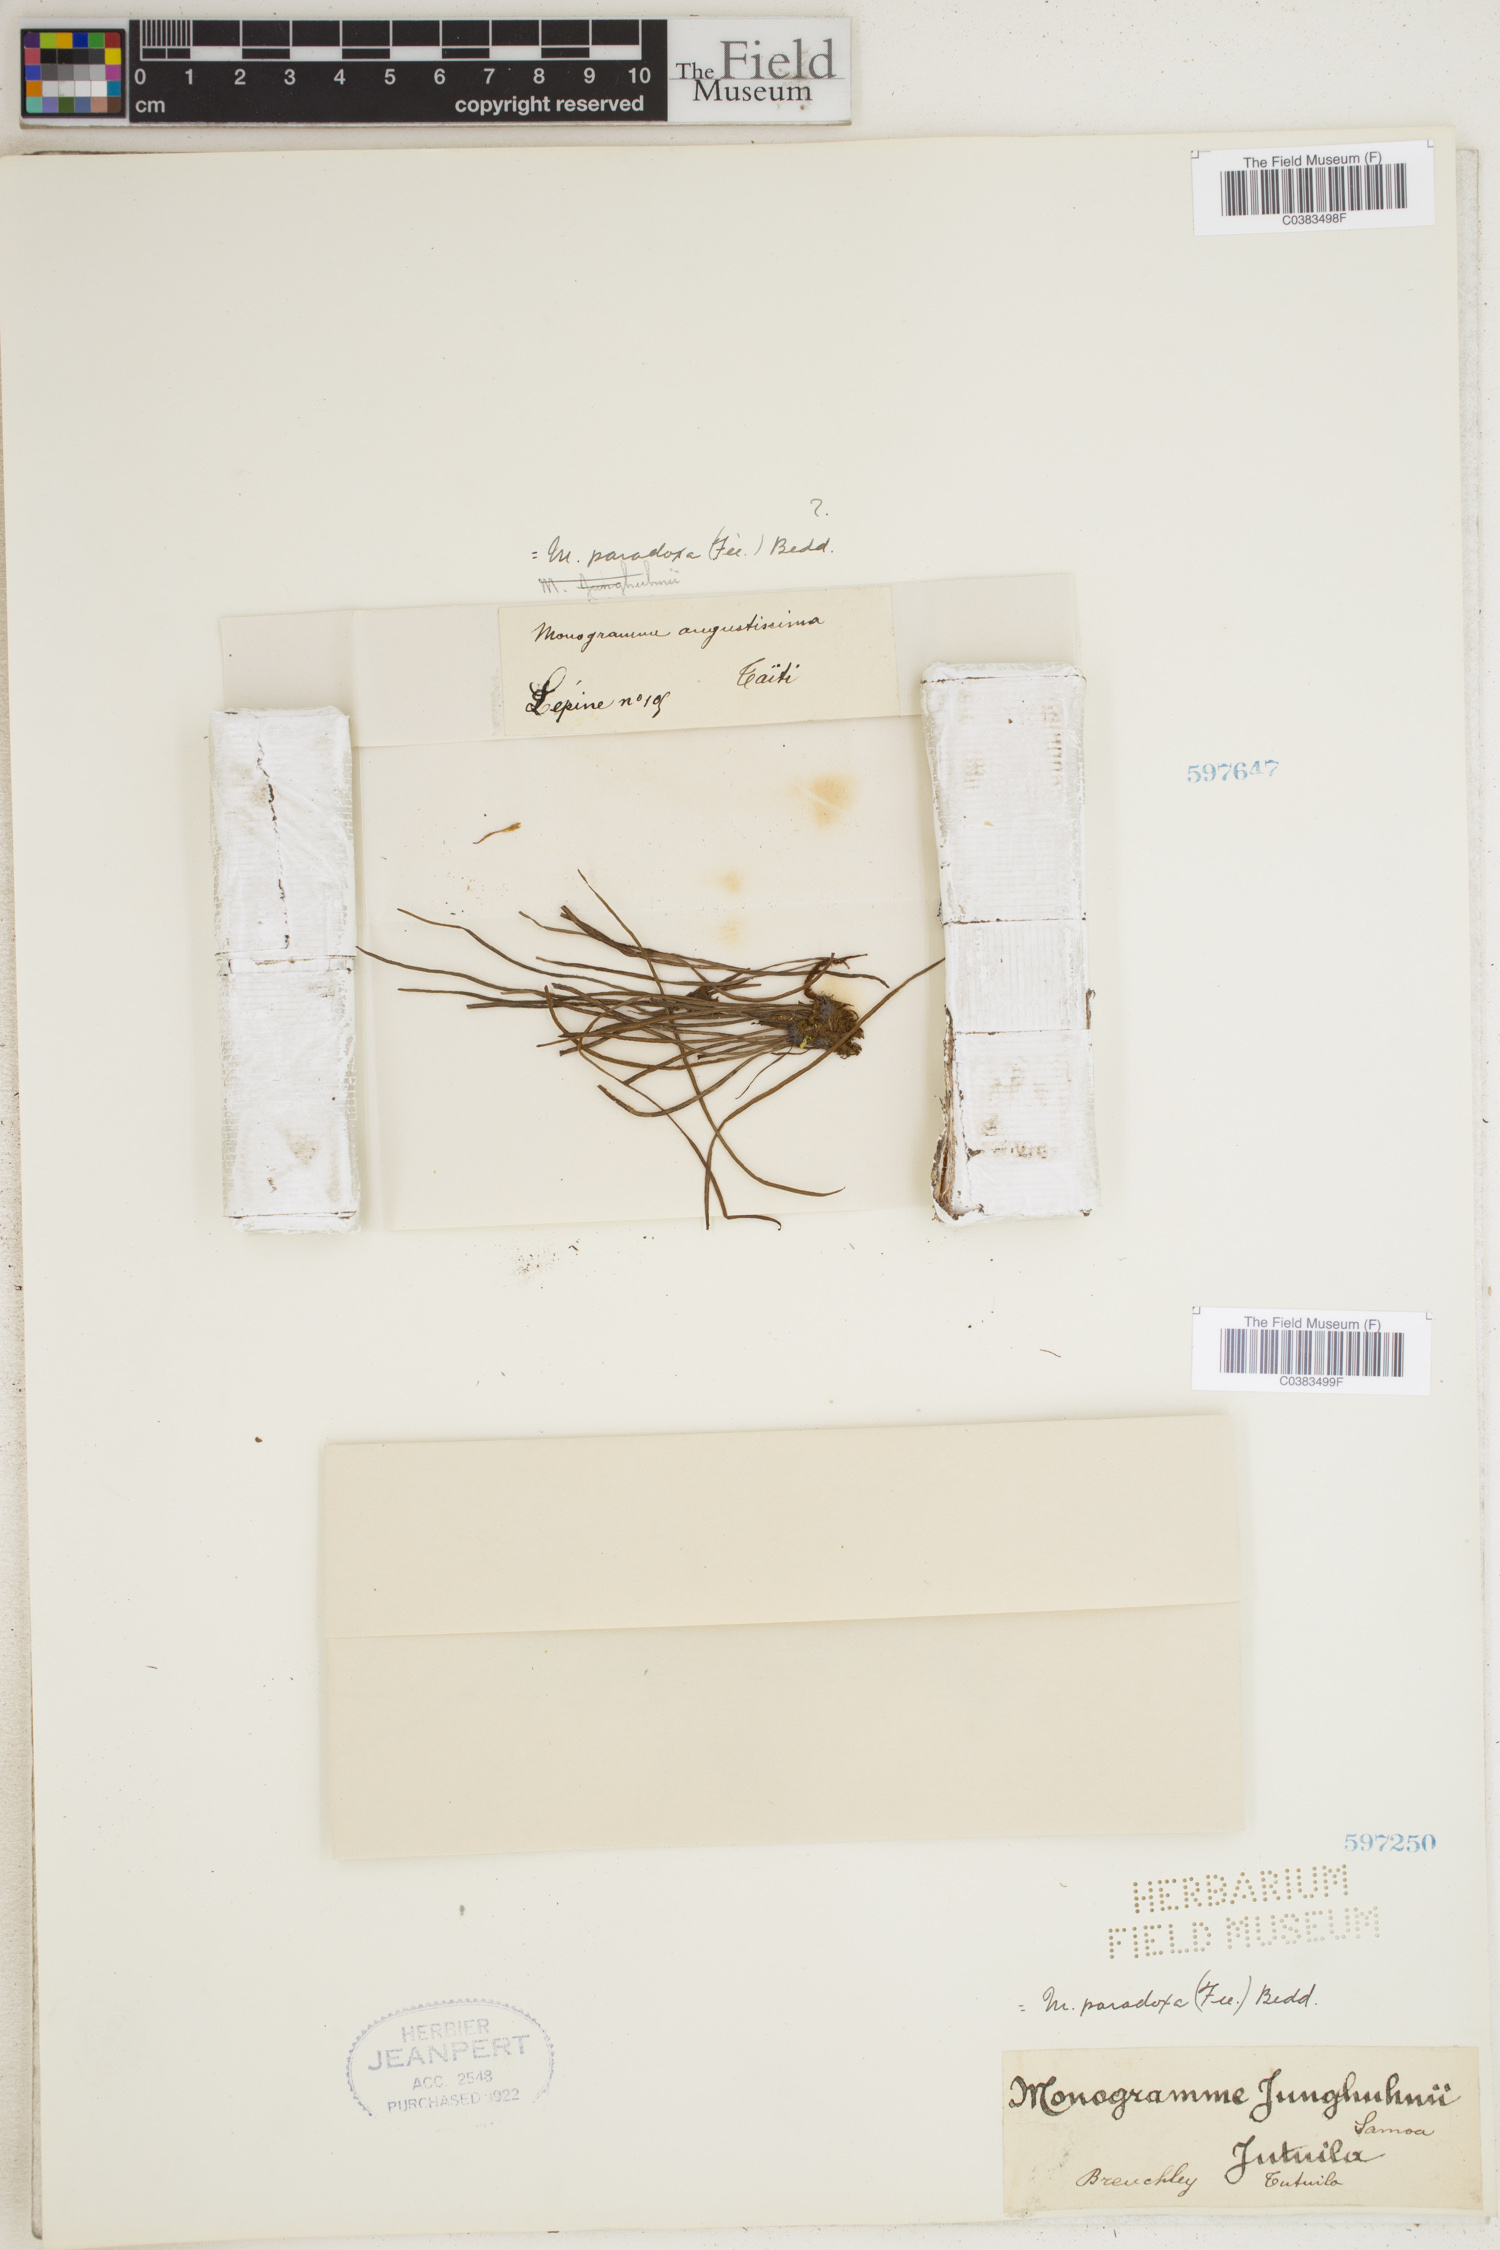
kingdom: Plantae
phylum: Tracheophyta
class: Polypodiopsida
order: Polypodiales
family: Pteridaceae
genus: Vaginularia
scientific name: Vaginularia paradoxa
